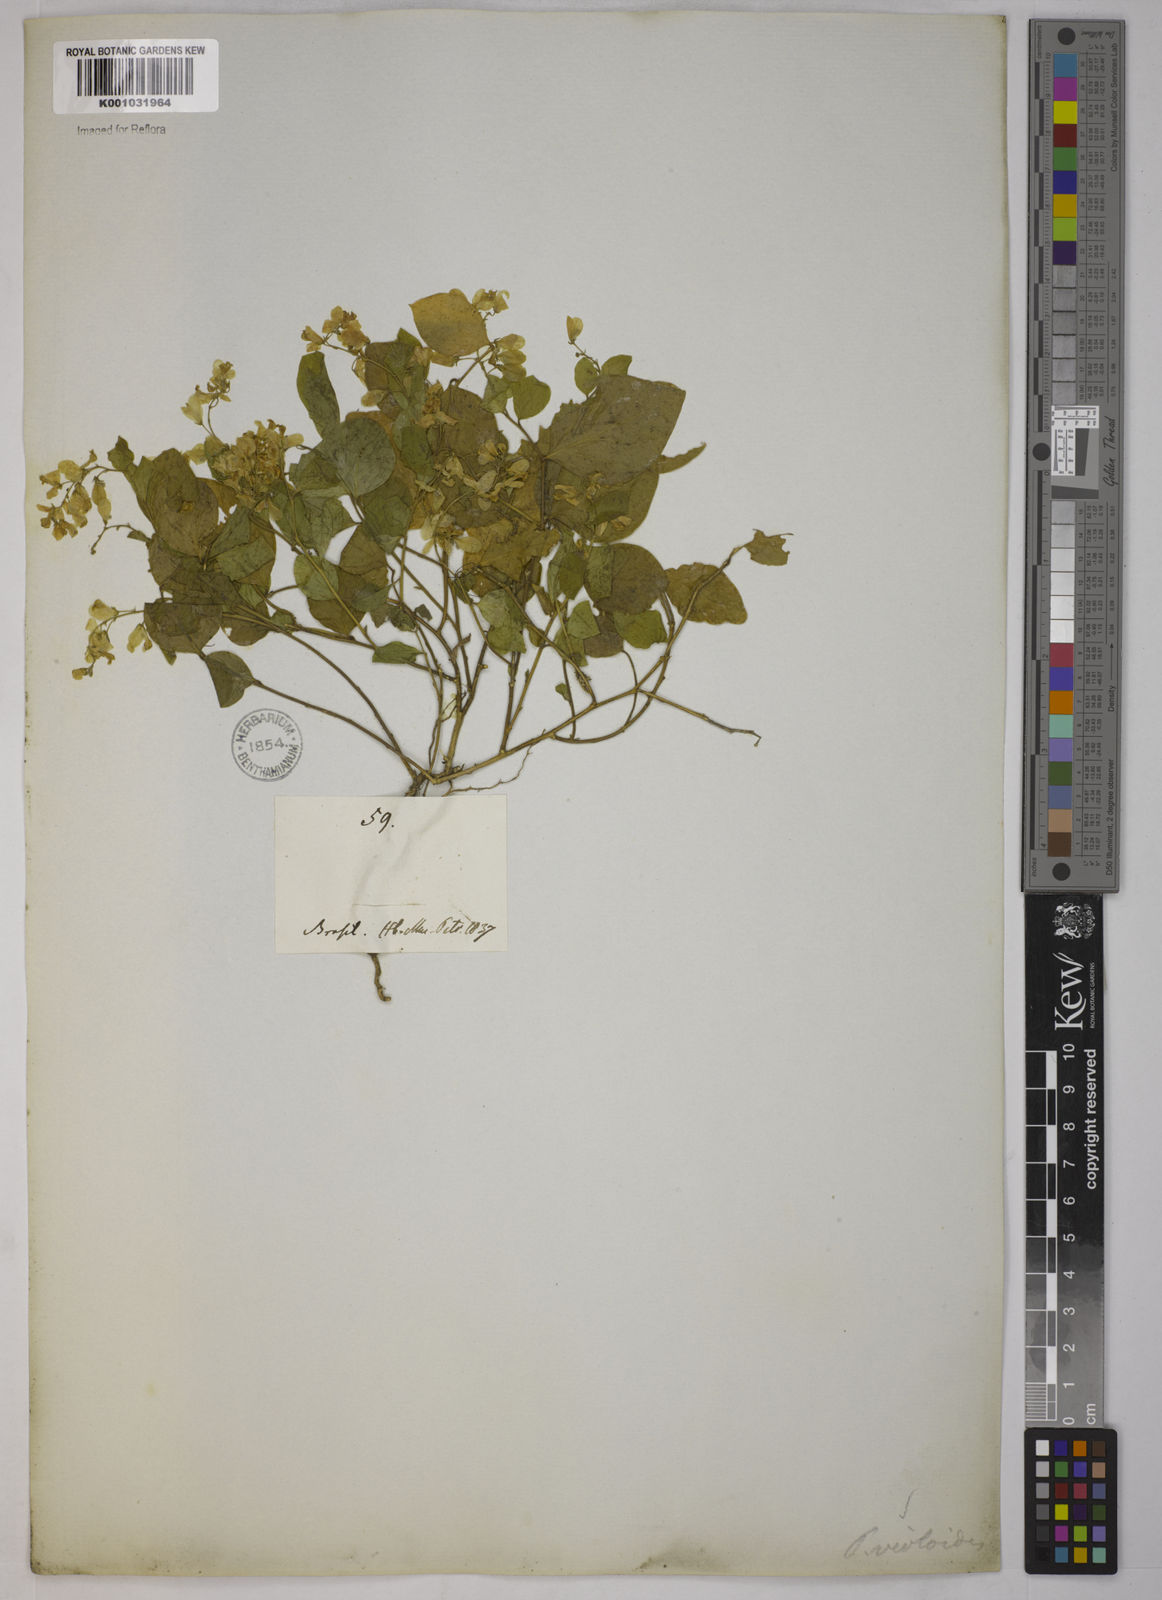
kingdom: Plantae
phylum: Tracheophyta
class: Magnoliopsida
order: Fabales
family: Polygalaceae
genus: Gymnospora
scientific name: Gymnospora violoides
